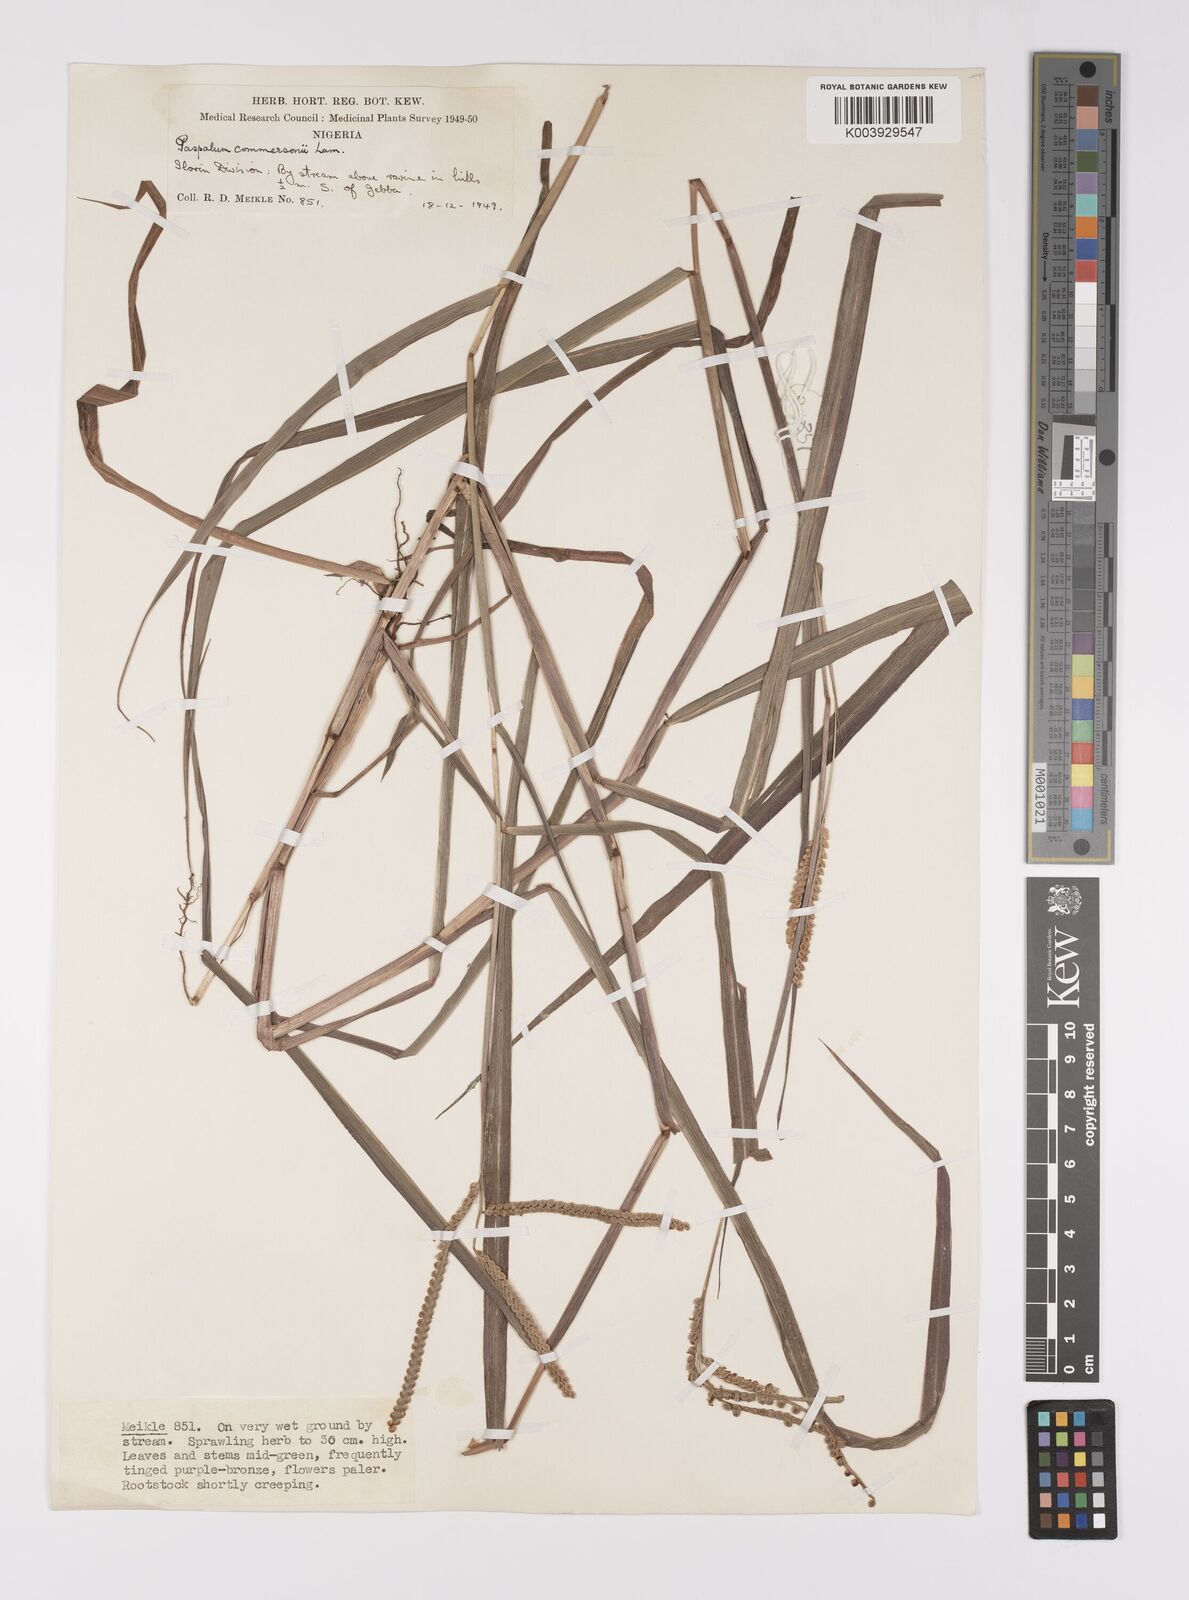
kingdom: Plantae
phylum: Tracheophyta
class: Liliopsida
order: Poales
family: Poaceae
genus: Paspalum
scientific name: Paspalum scrobiculatum
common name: Kodo millet
